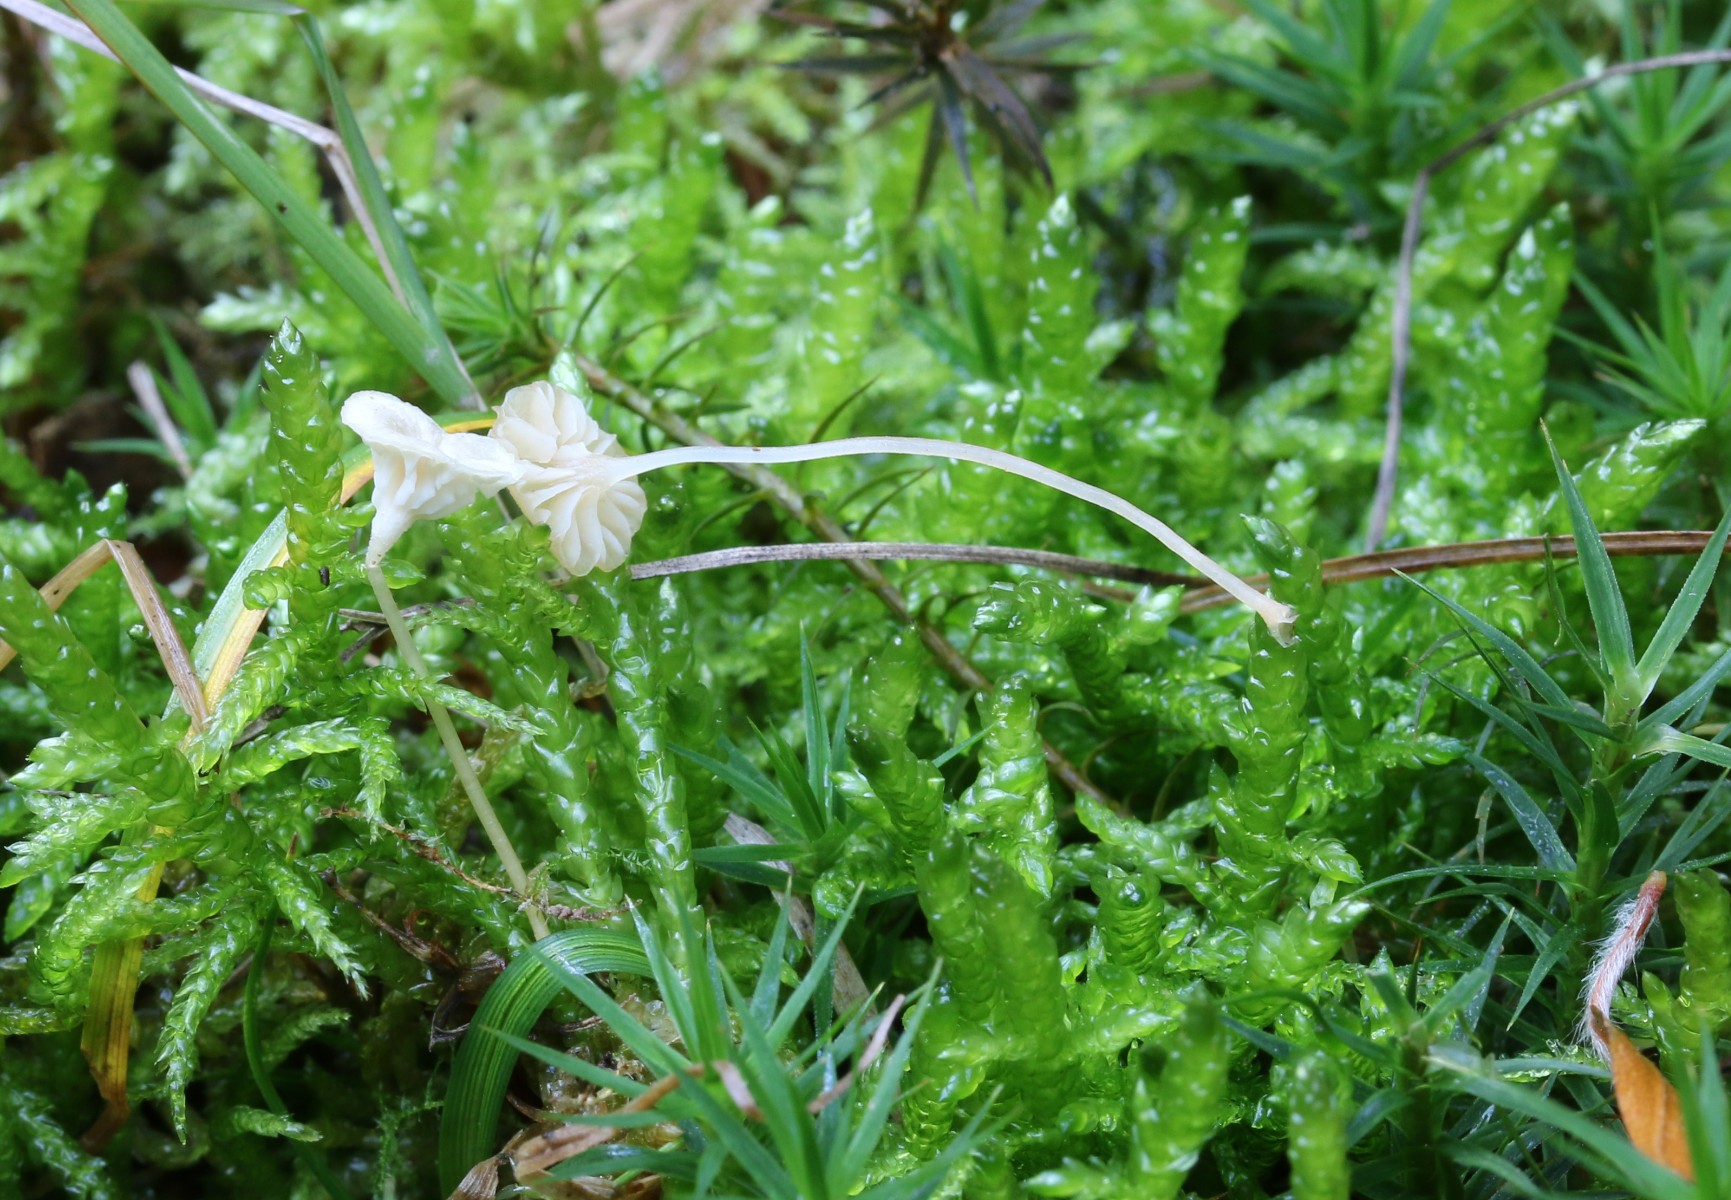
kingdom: Fungi
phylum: Basidiomycota
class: Agaricomycetes
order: Hymenochaetales
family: Rickenellaceae
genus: Rickenella
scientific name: Rickenella fibula
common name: orange mosnavlehat
